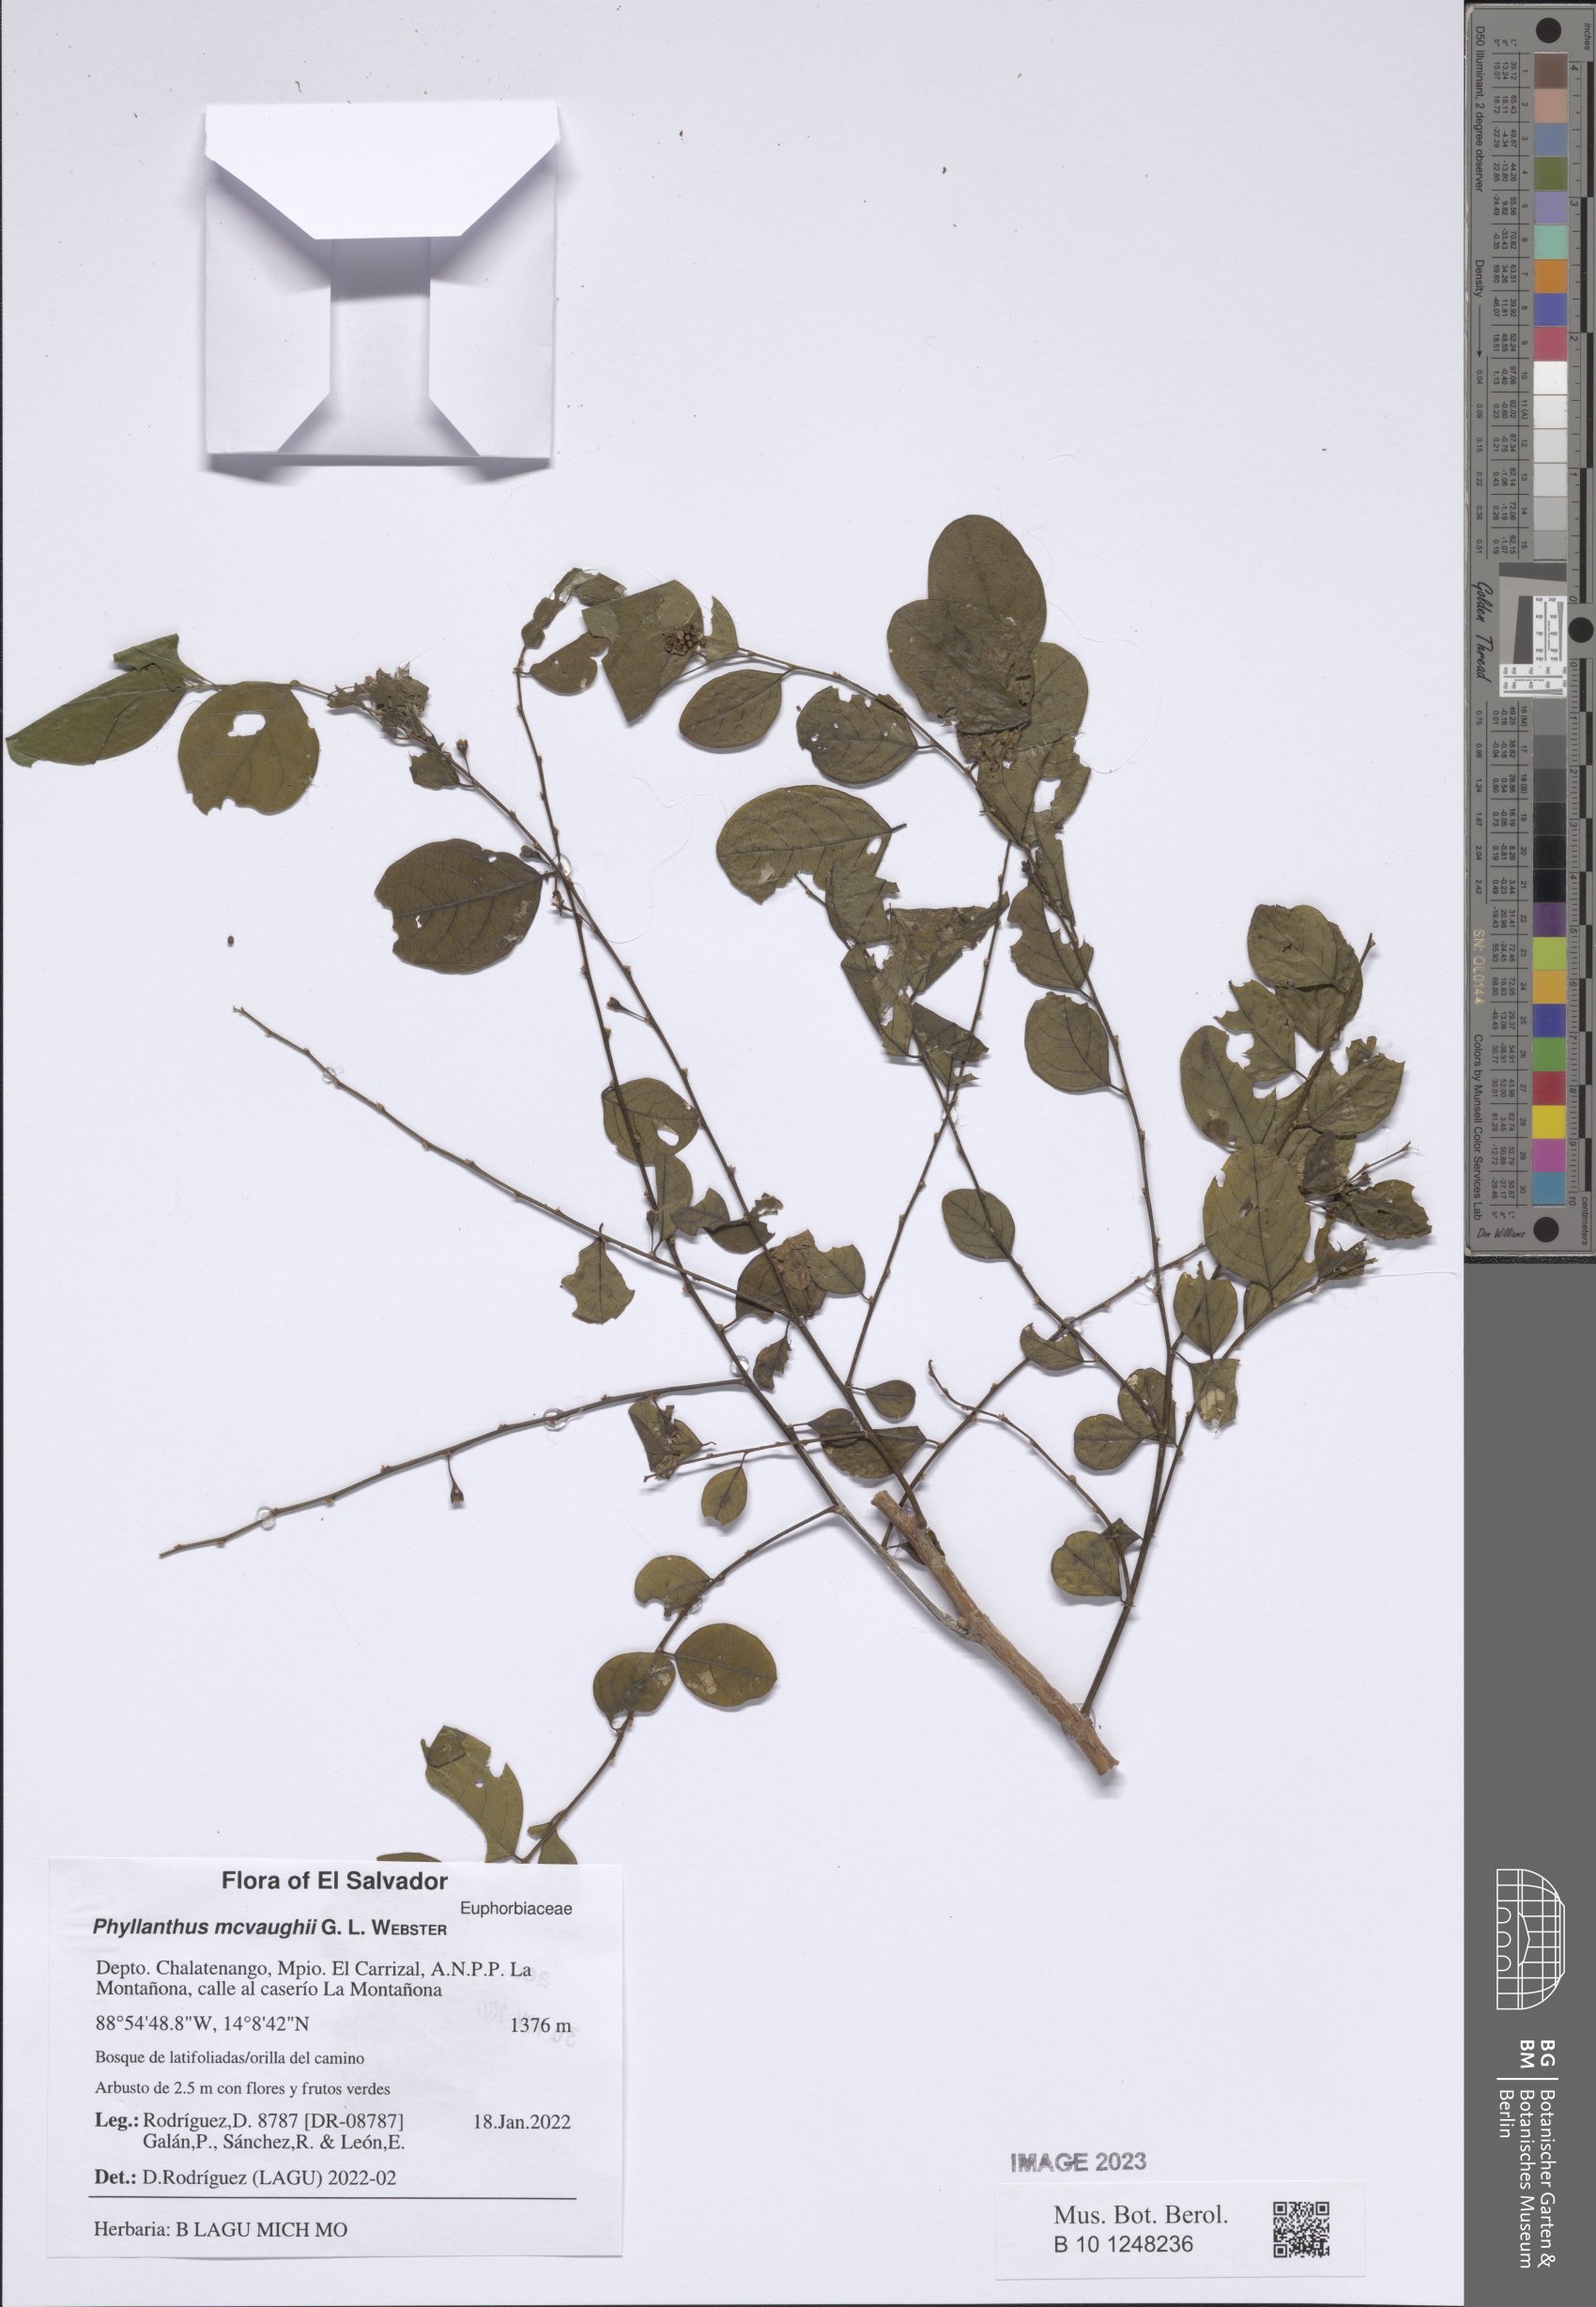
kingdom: Plantae
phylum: Tracheophyta
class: Magnoliopsida
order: Malpighiales
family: Phyllanthaceae
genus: Phyllanthus
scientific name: Phyllanthus mcvaughii
